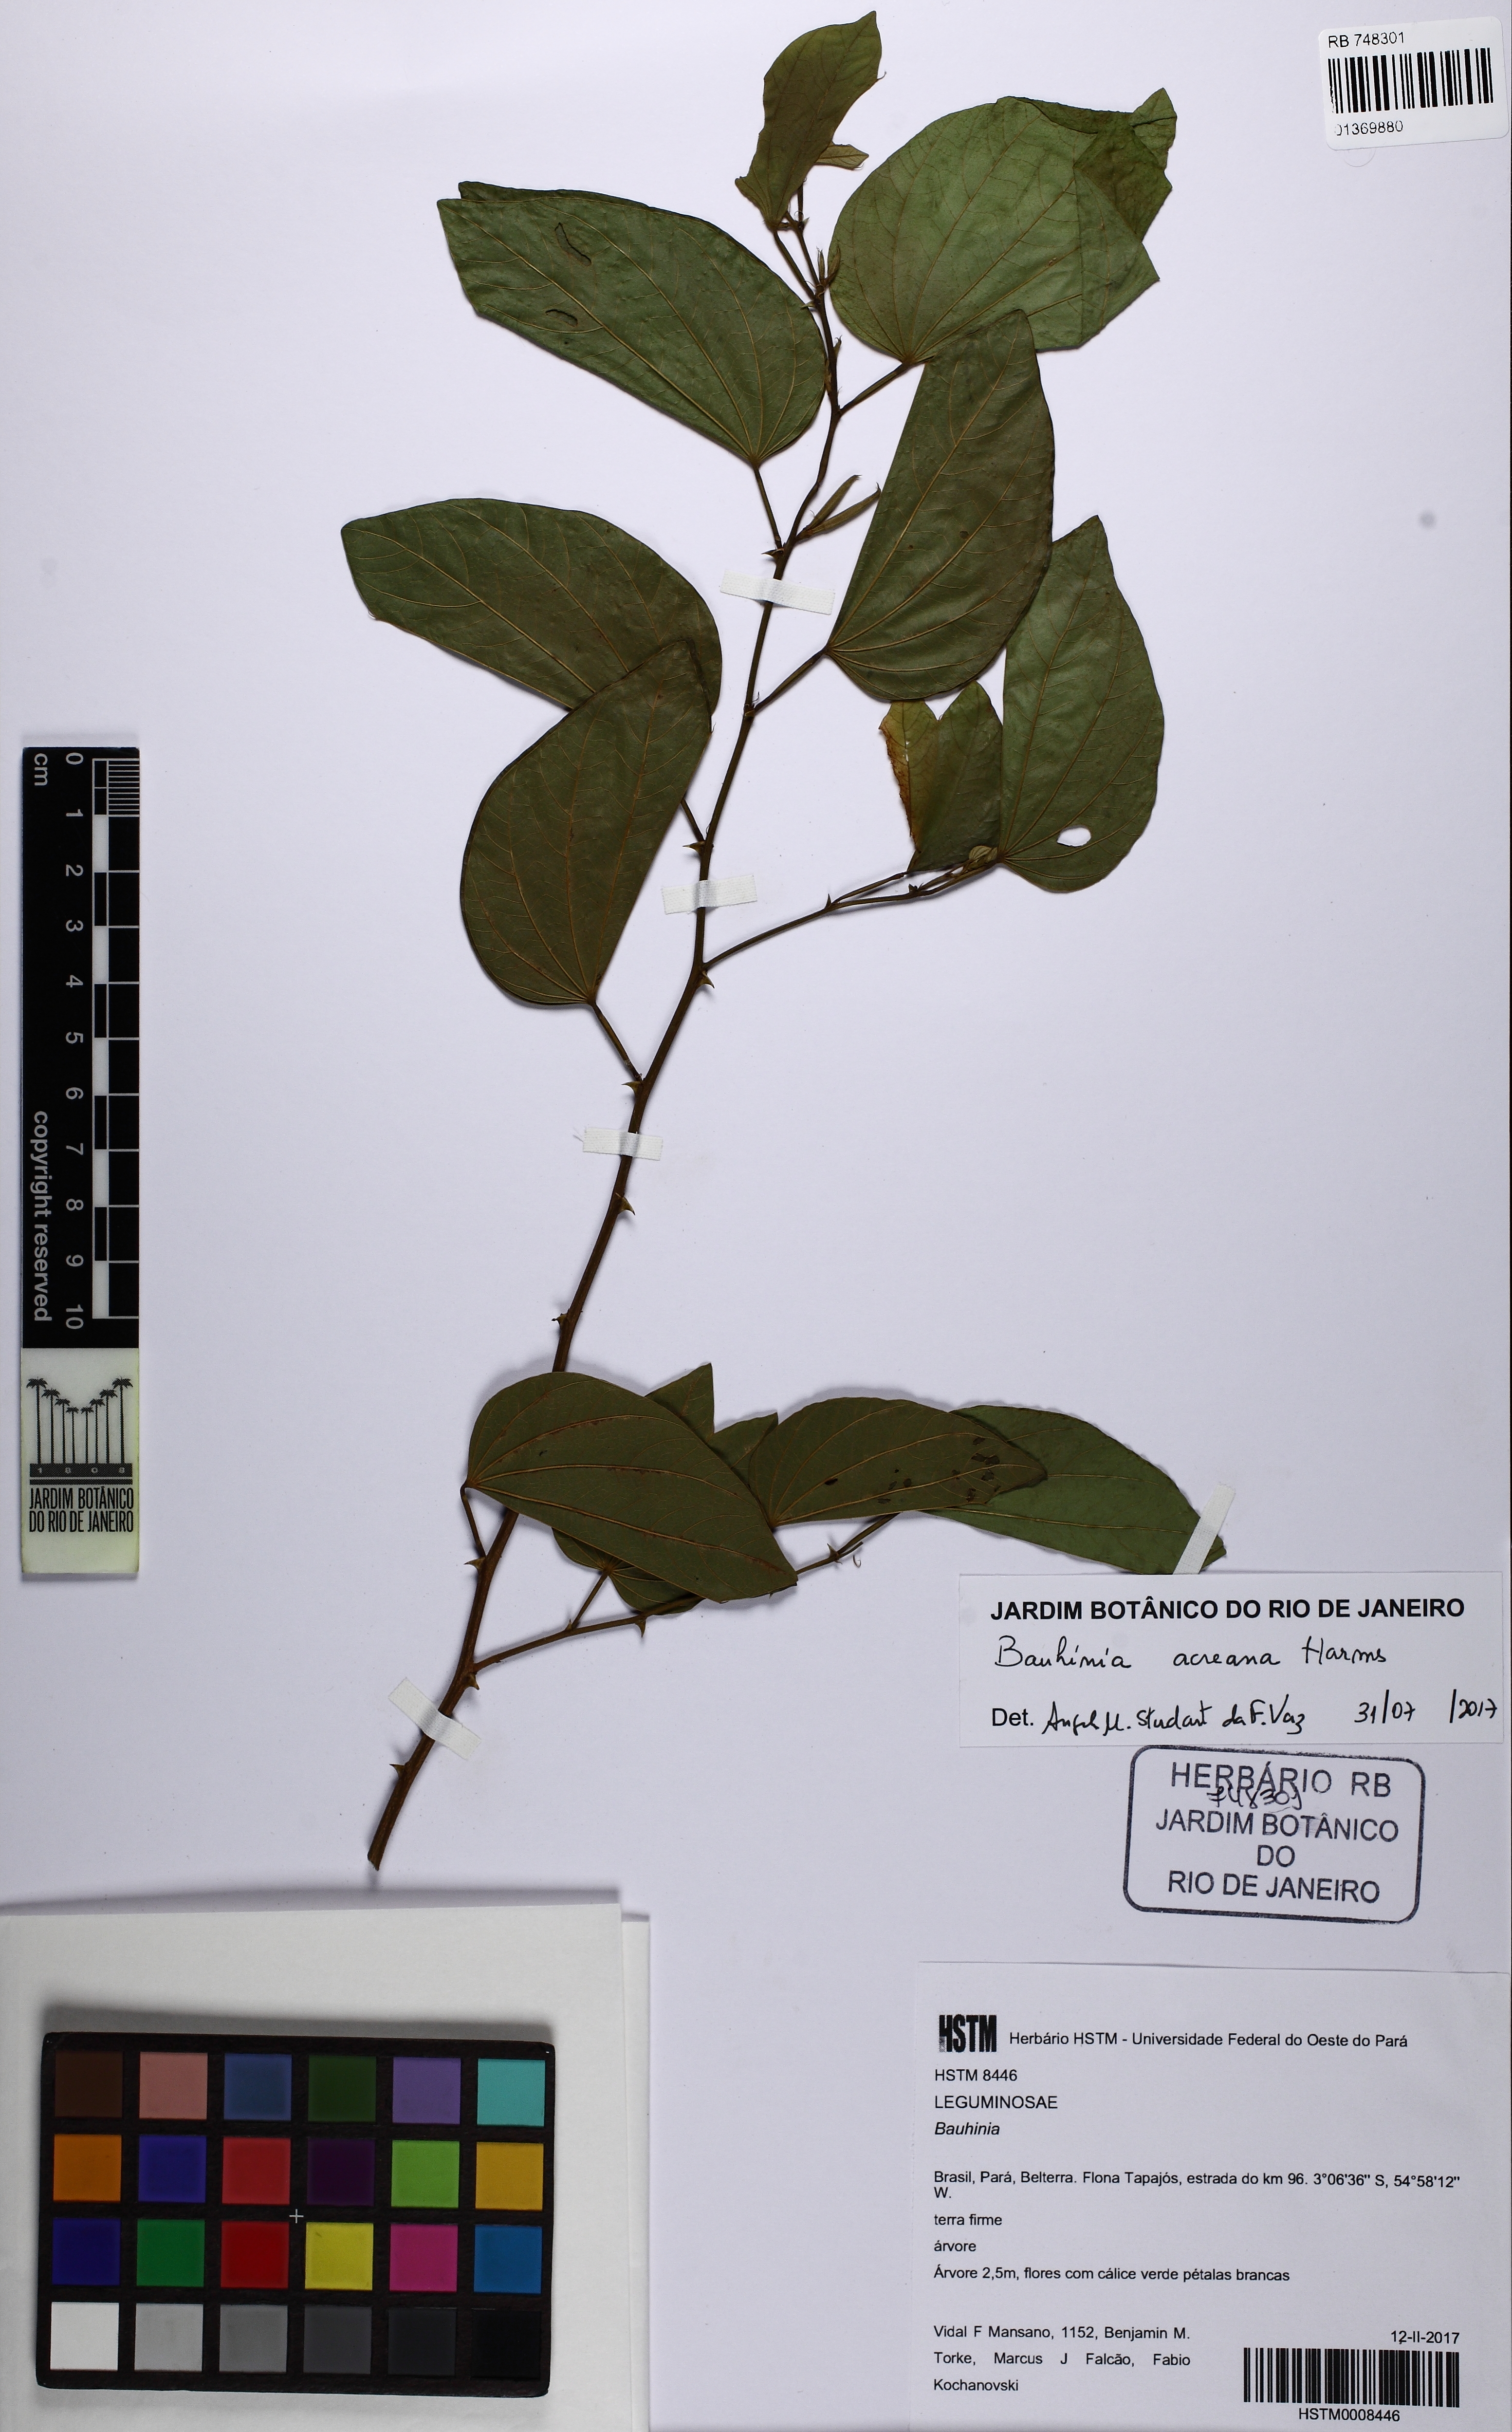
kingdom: Plantae
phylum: Tracheophyta
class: Magnoliopsida
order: Fabales
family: Fabaceae
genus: Bauhinia
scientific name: Bauhinia acreana
